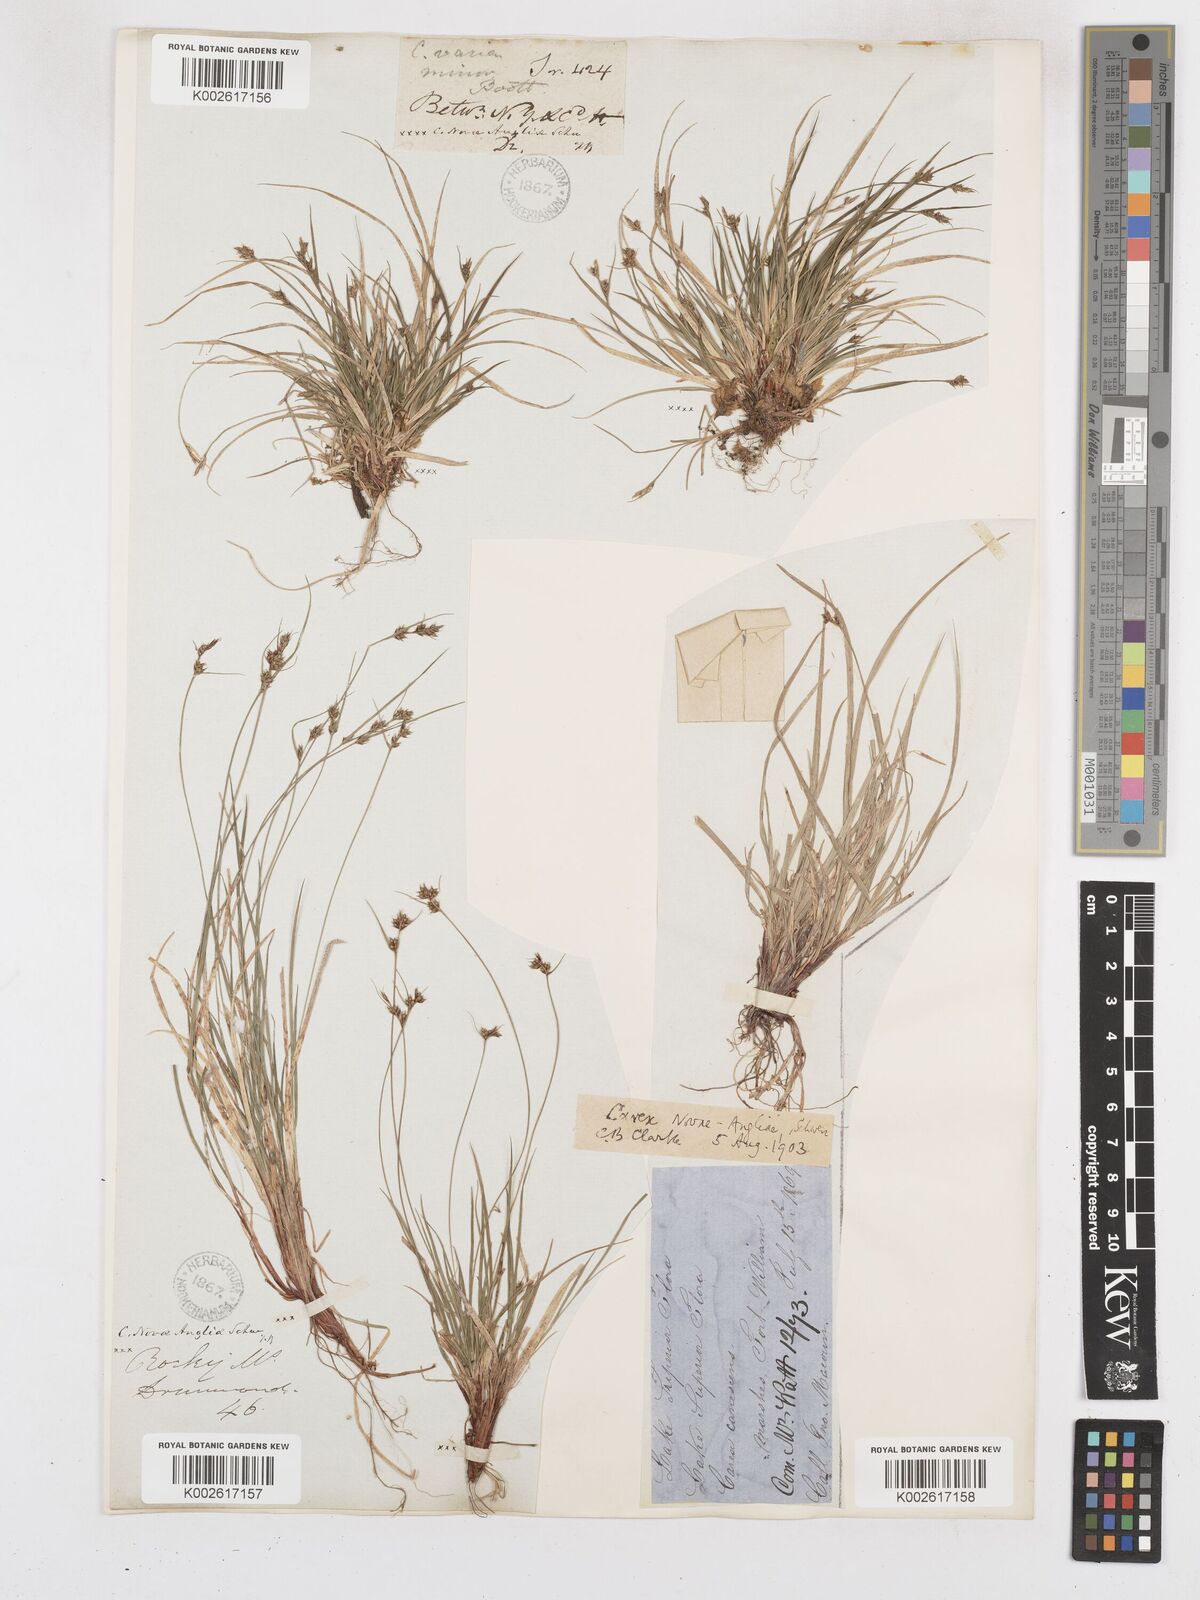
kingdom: Plantae
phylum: Tracheophyta
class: Liliopsida
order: Poales
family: Cyperaceae
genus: Carex
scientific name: Carex novae-angliae
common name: New england sedge
